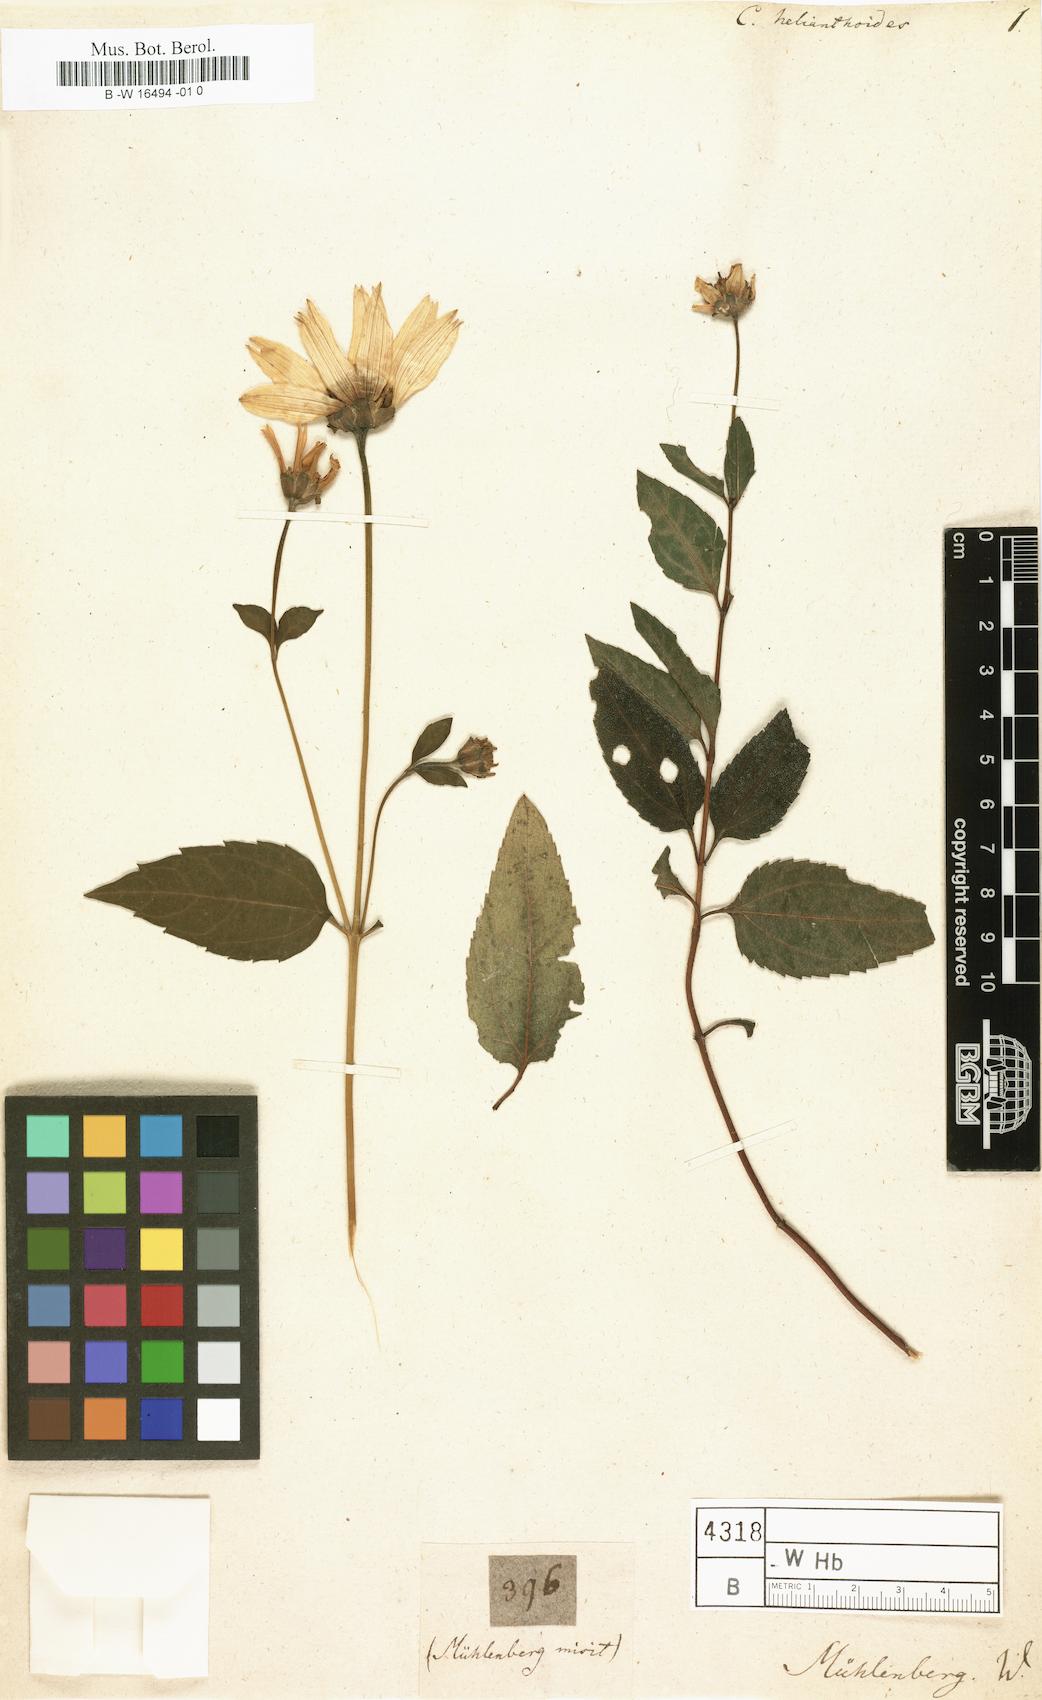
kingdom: Plantae
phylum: Tracheophyta
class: Magnoliopsida
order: Asterales
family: Asteraceae
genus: Coreopsis
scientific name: Coreopsis gladiata
